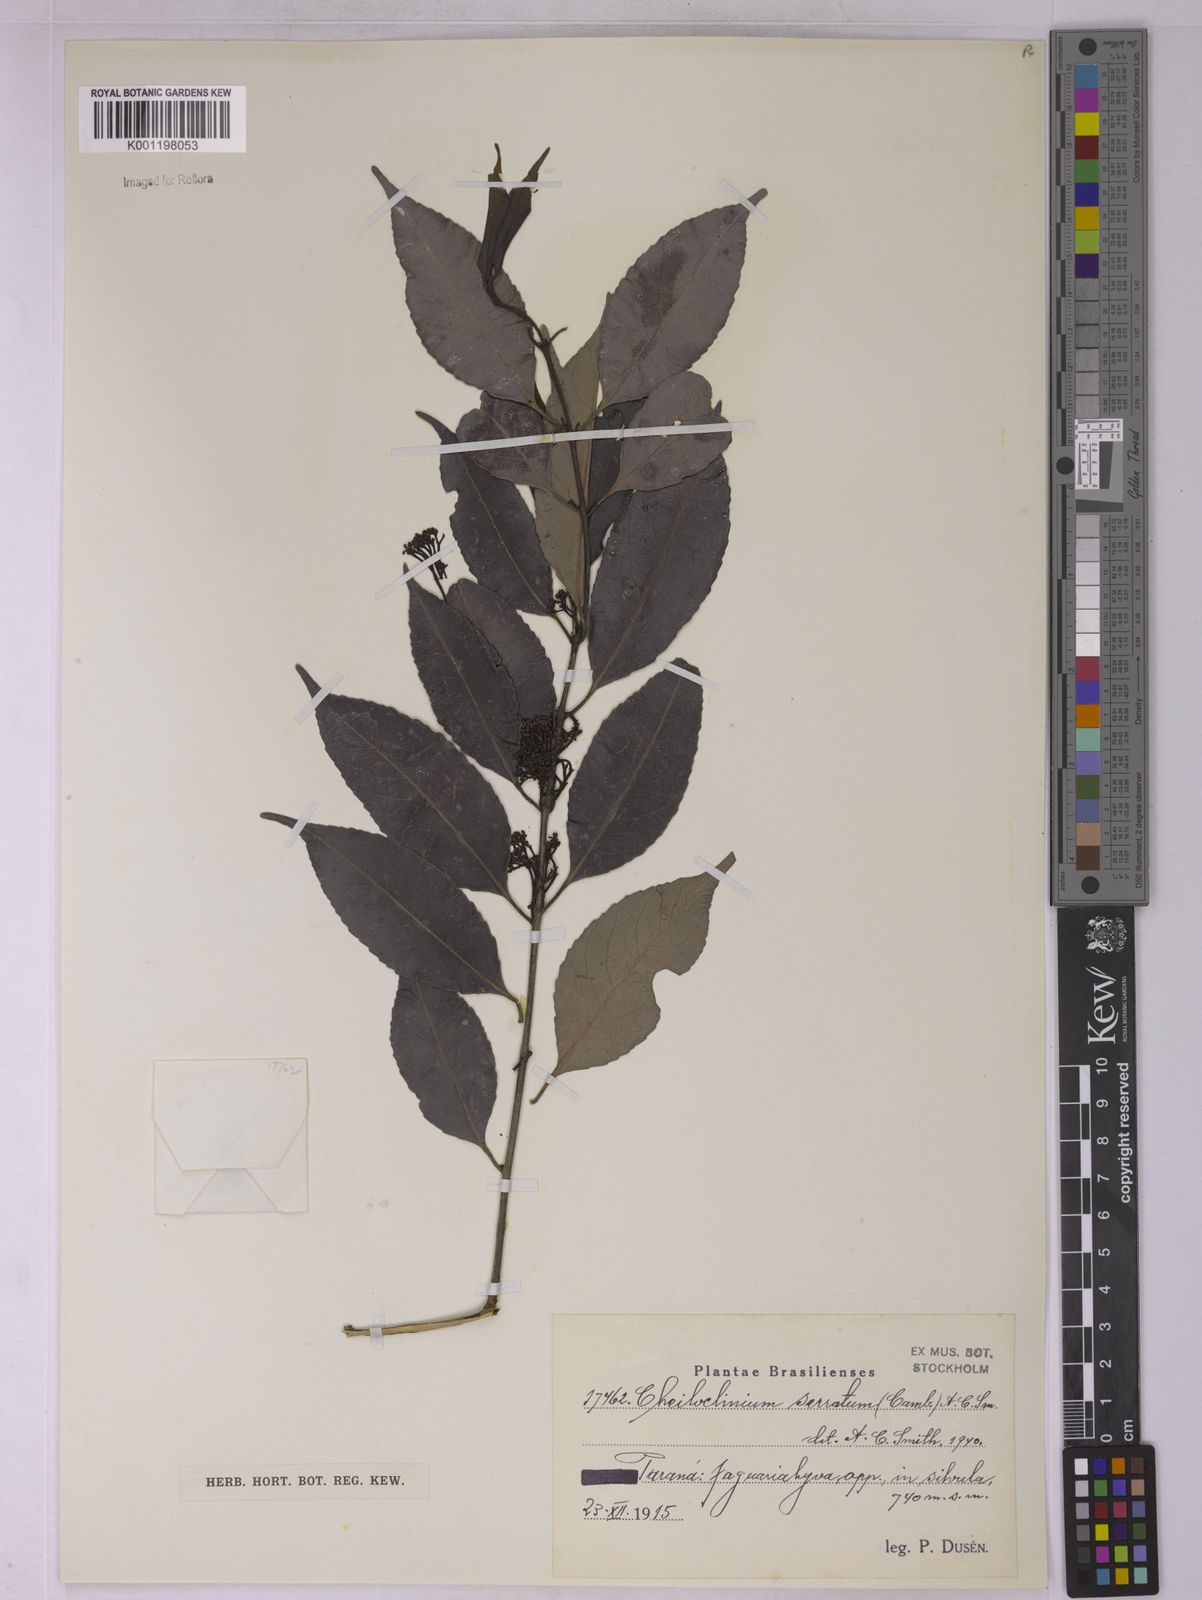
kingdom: Plantae
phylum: Tracheophyta
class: Magnoliopsida
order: Celastrales
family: Celastraceae
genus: Cheiloclinium
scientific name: Cheiloclinium serratum
